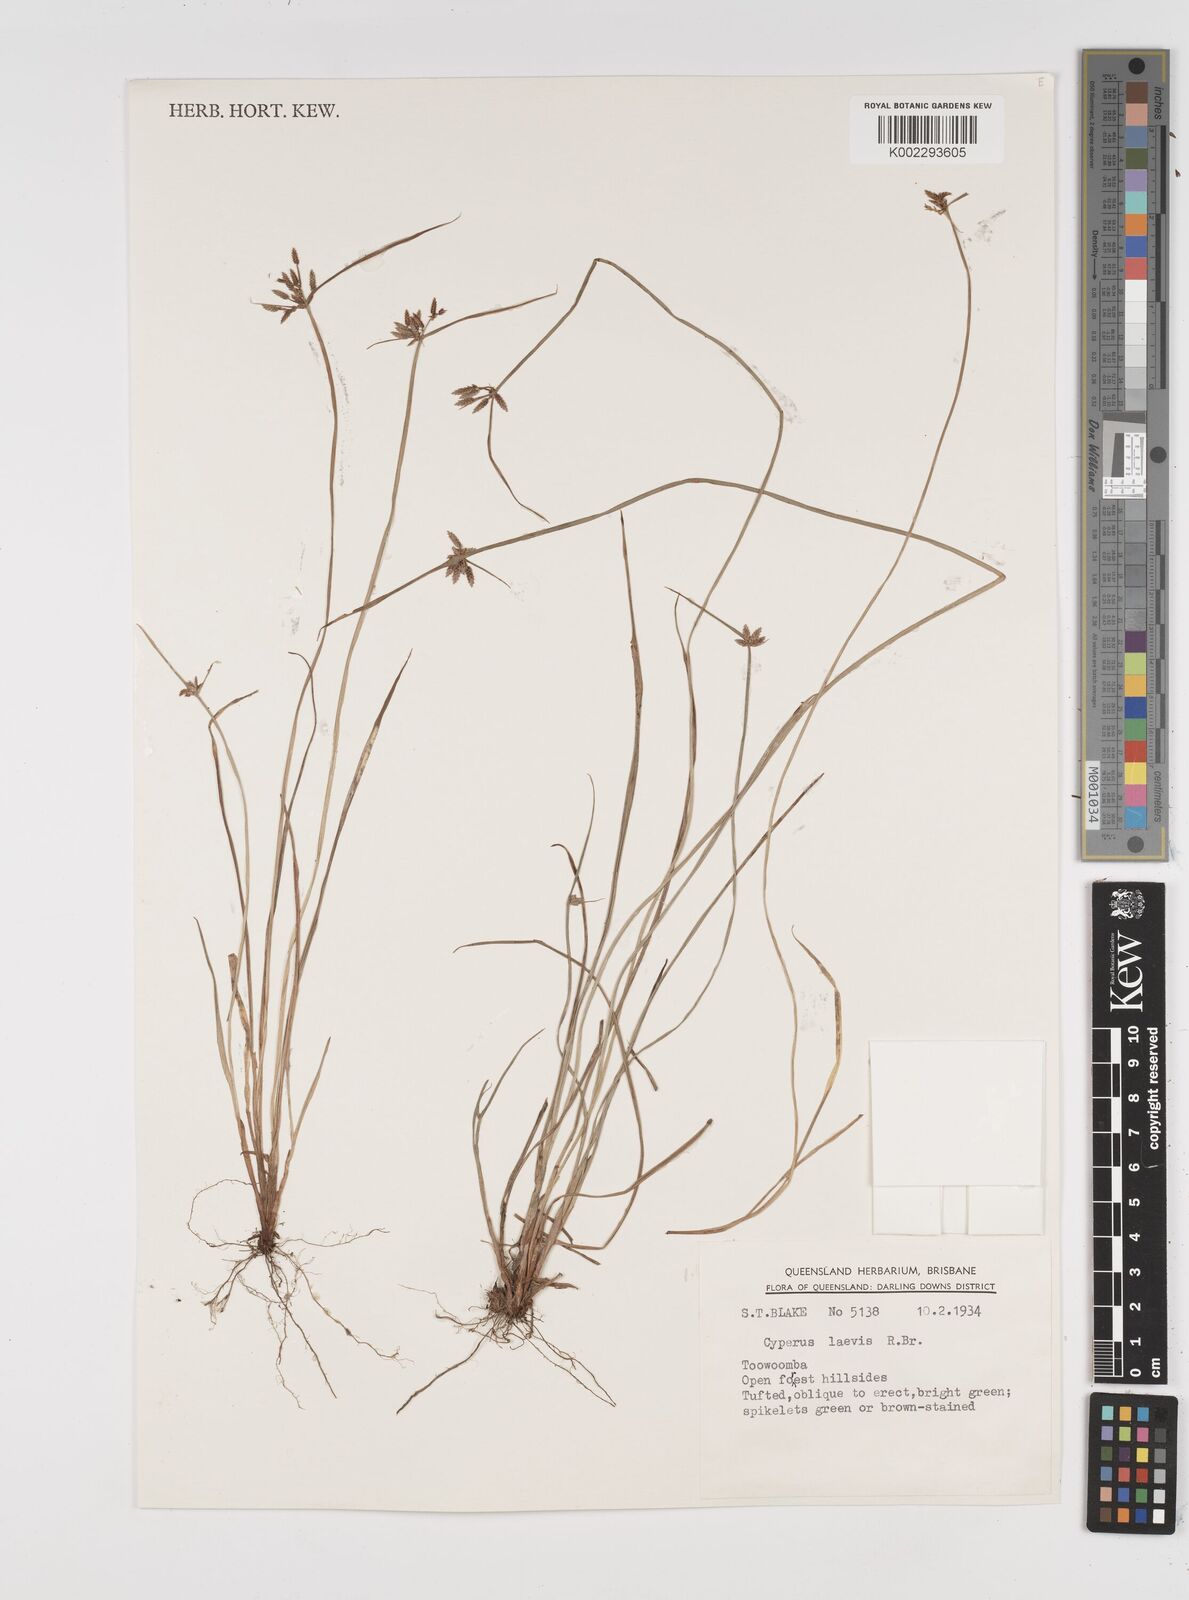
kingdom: Plantae
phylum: Tracheophyta
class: Liliopsida
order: Poales
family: Cyperaceae
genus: Cyperus
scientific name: Cyperus laevis
